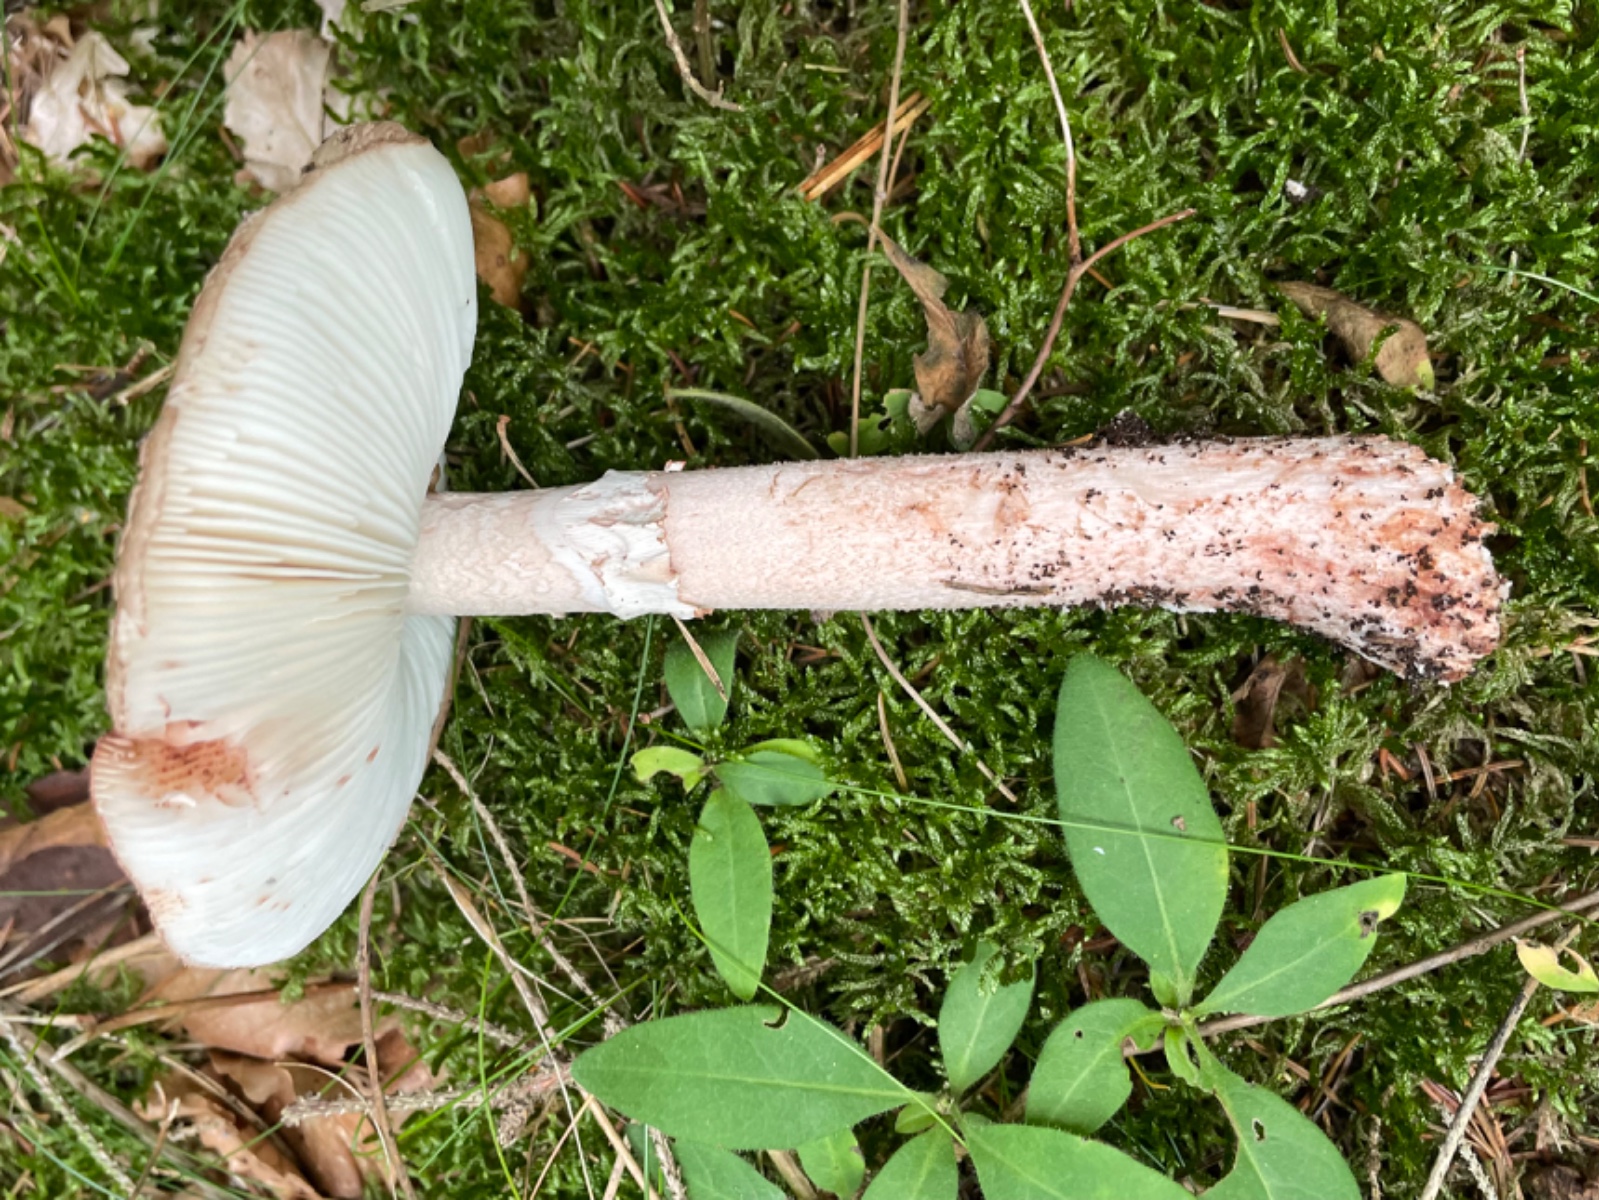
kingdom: Fungi
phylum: Basidiomycota
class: Agaricomycetes
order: Agaricales
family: Amanitaceae
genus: Amanita
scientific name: Amanita rubescens
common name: rødmende fluesvamp
